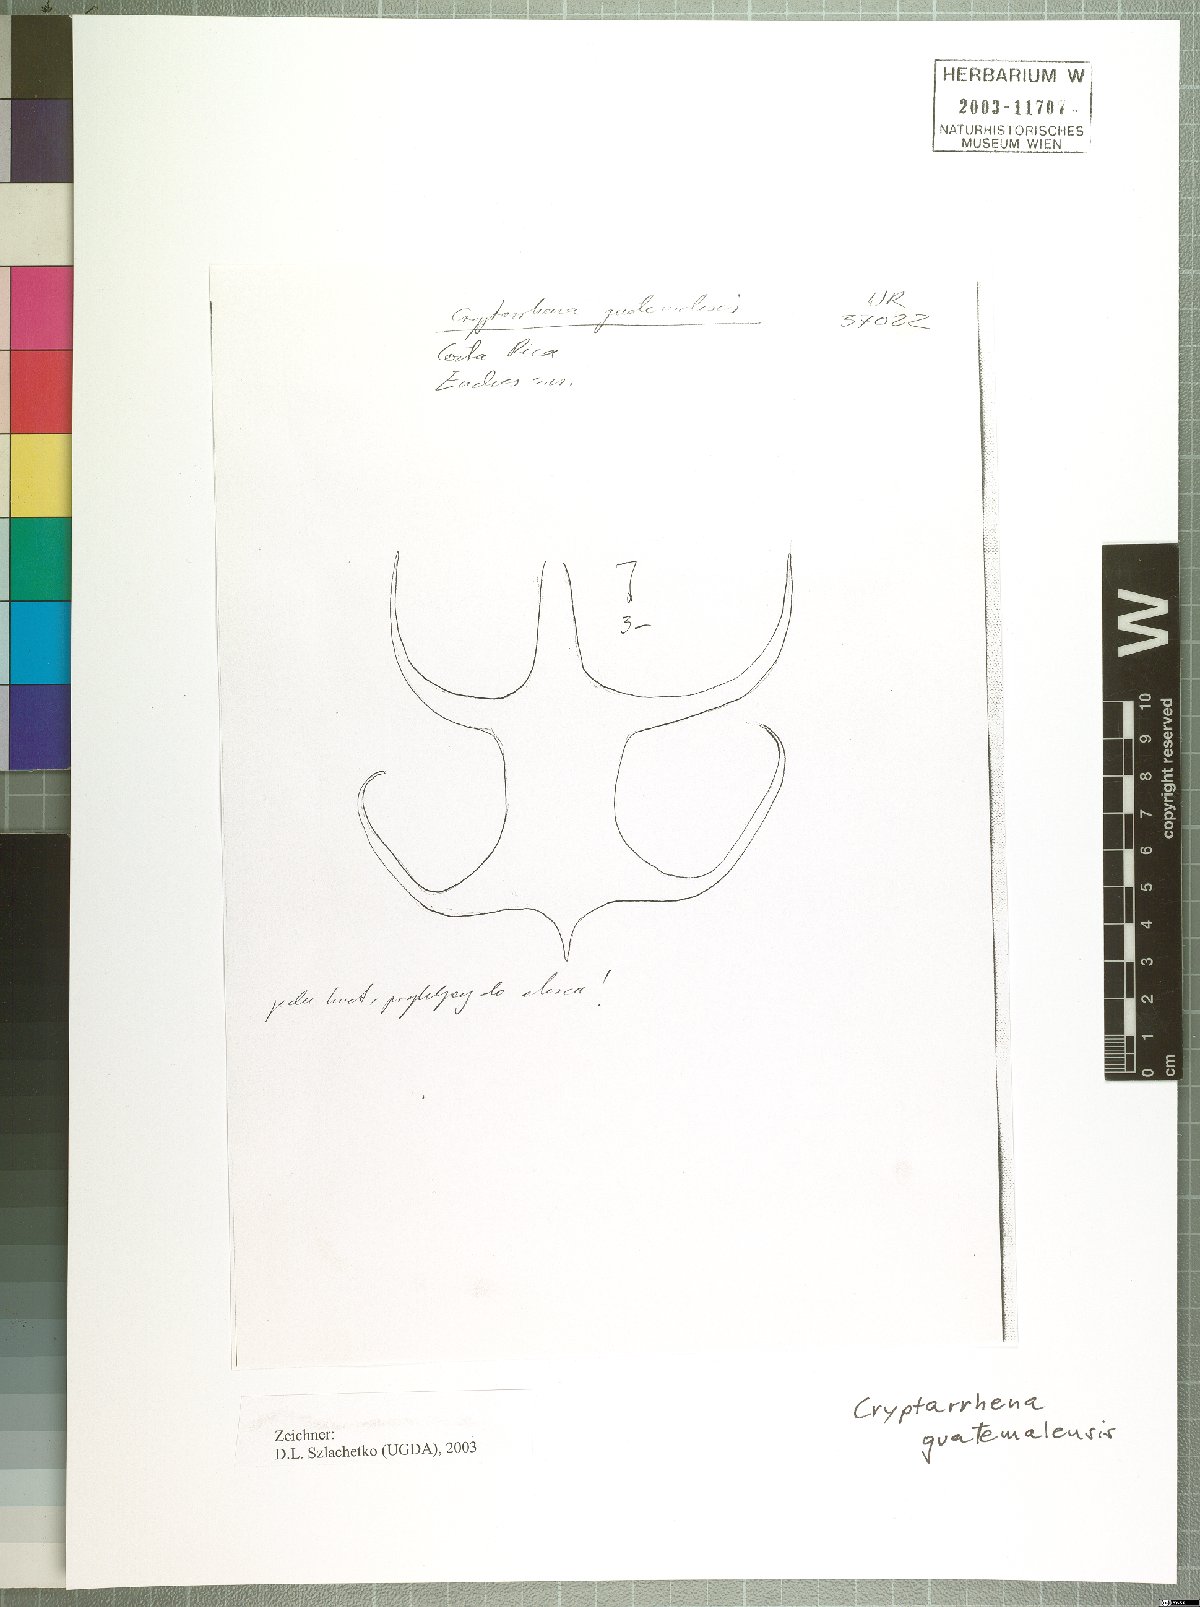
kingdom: Plantae
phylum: Tracheophyta
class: Liliopsida
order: Asparagales
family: Orchidaceae
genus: Cryptarrhena
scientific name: Cryptarrhena guatemalensis
